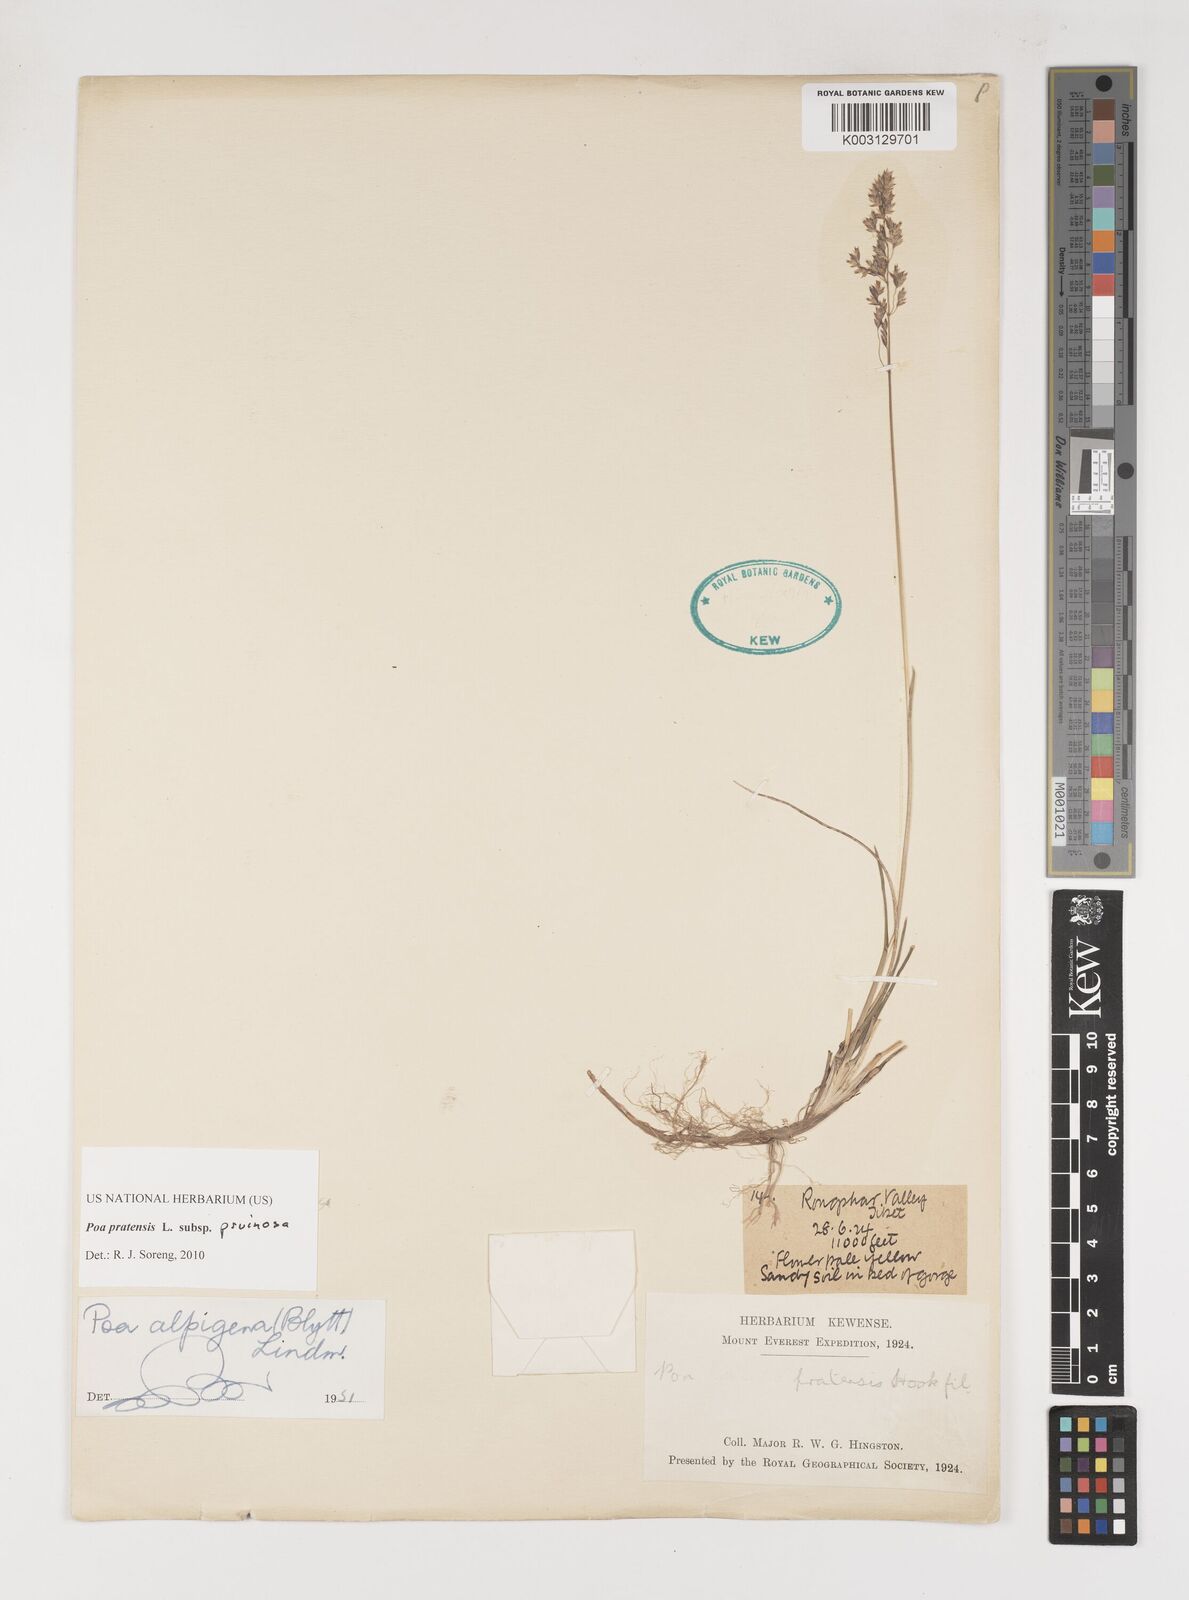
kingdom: Plantae
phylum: Tracheophyta
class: Liliopsida
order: Poales
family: Poaceae
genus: Poa
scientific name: Poa tianschanica
